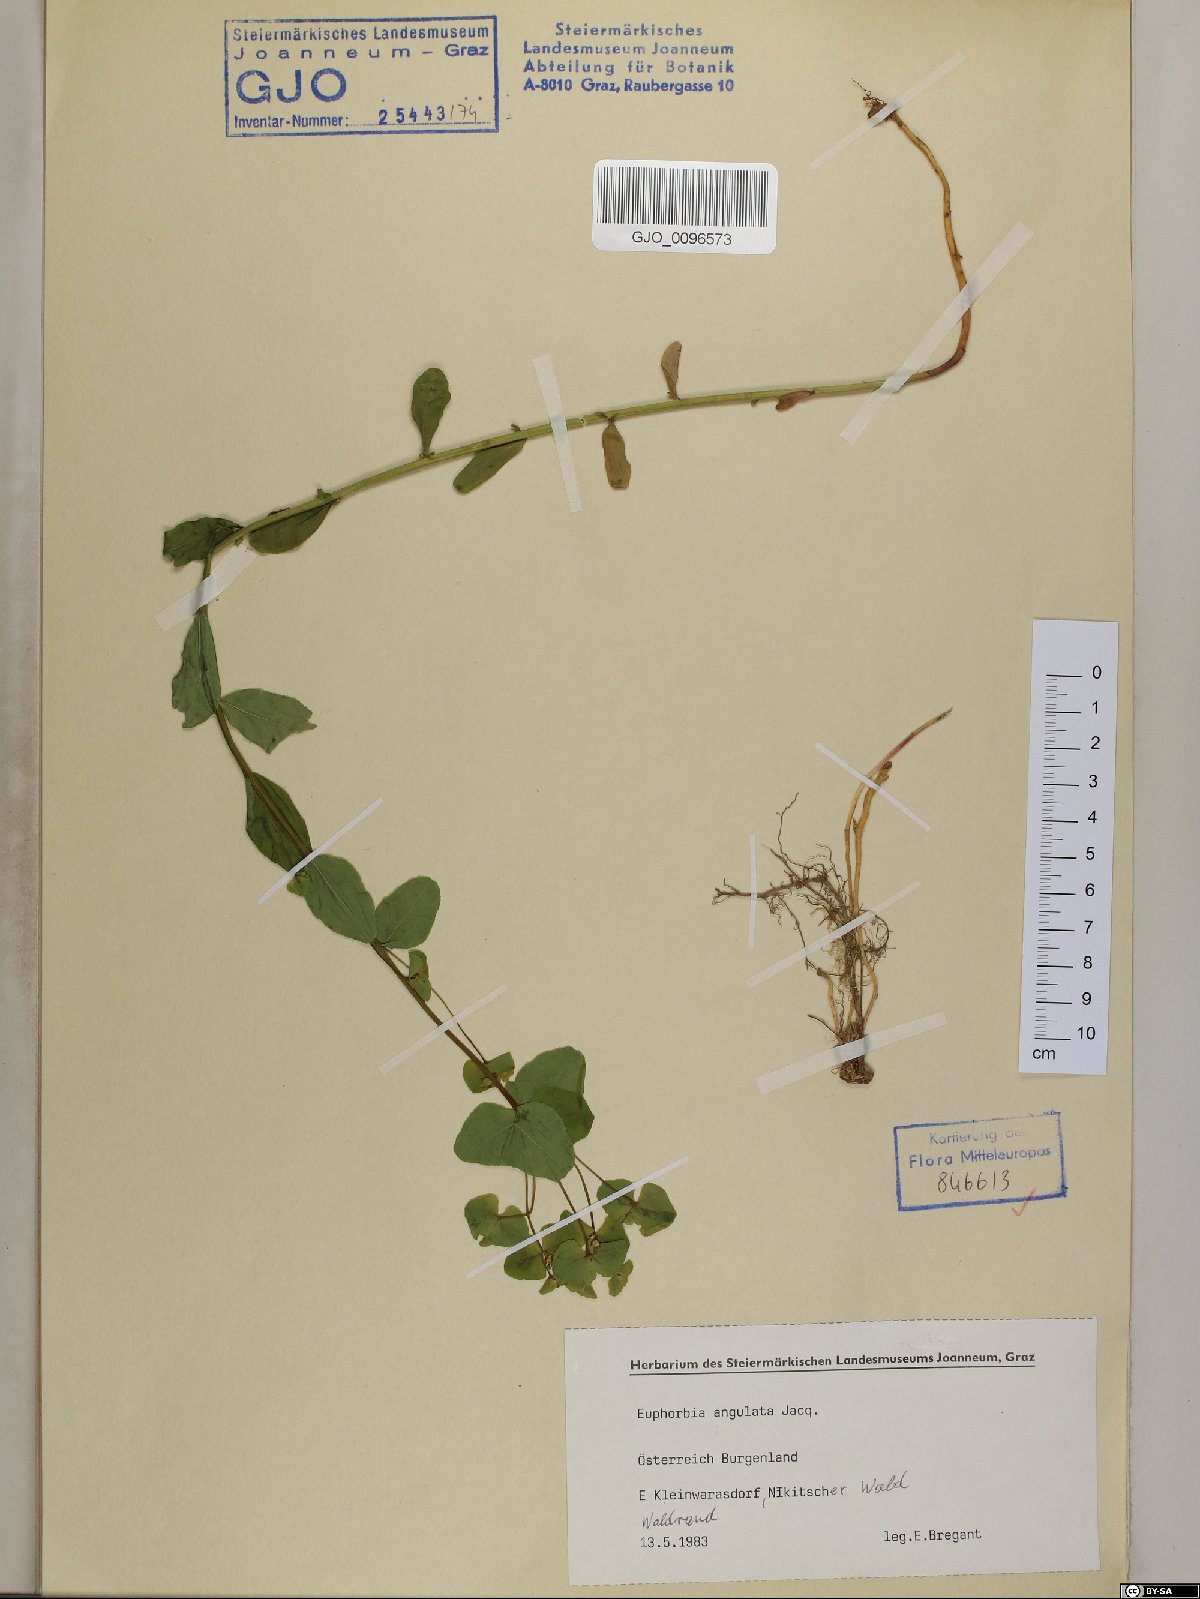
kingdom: Plantae
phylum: Tracheophyta
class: Magnoliopsida
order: Malpighiales
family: Euphorbiaceae
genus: Euphorbia
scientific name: Euphorbia angulata
